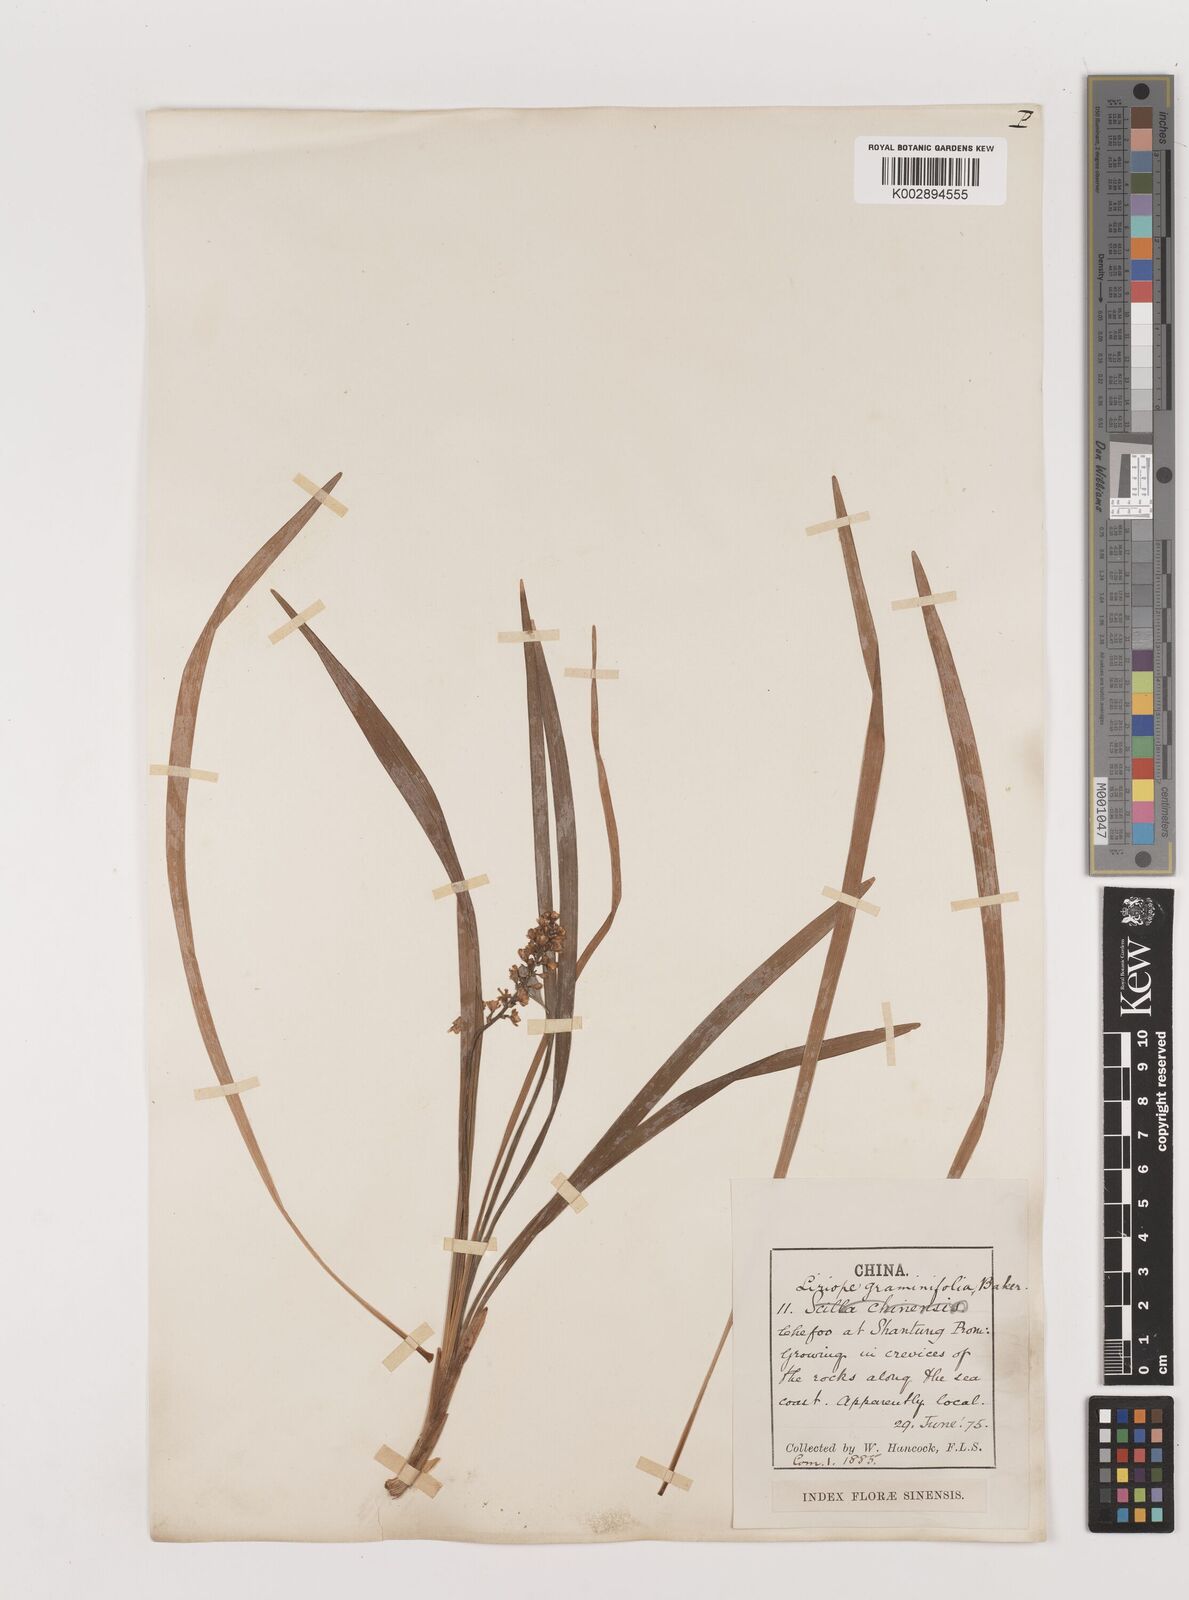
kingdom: Plantae
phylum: Tracheophyta
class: Liliopsida
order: Asparagales
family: Asparagaceae
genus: Liriope
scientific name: Liriope spicata
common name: Creeping liriope
